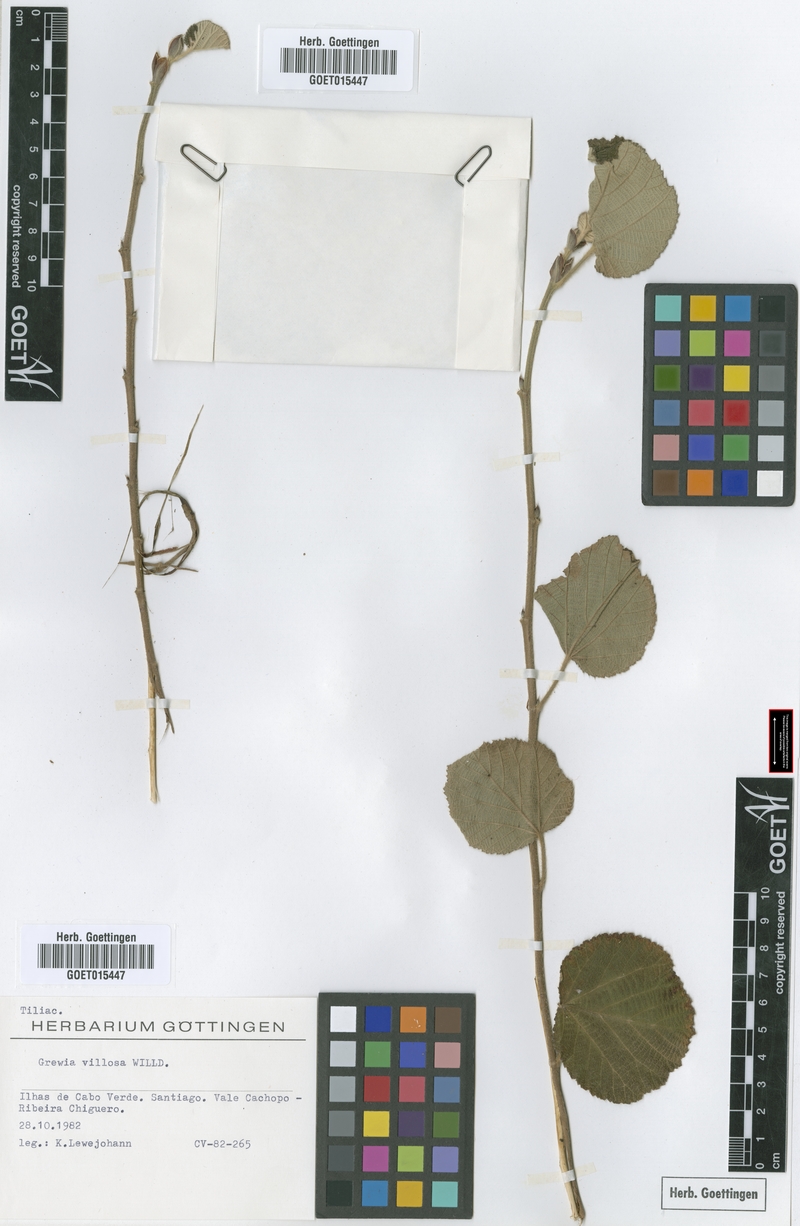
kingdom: Plantae
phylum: Tracheophyta
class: Magnoliopsida
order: Malvales
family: Malvaceae
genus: Grewia
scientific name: Grewia villosa
